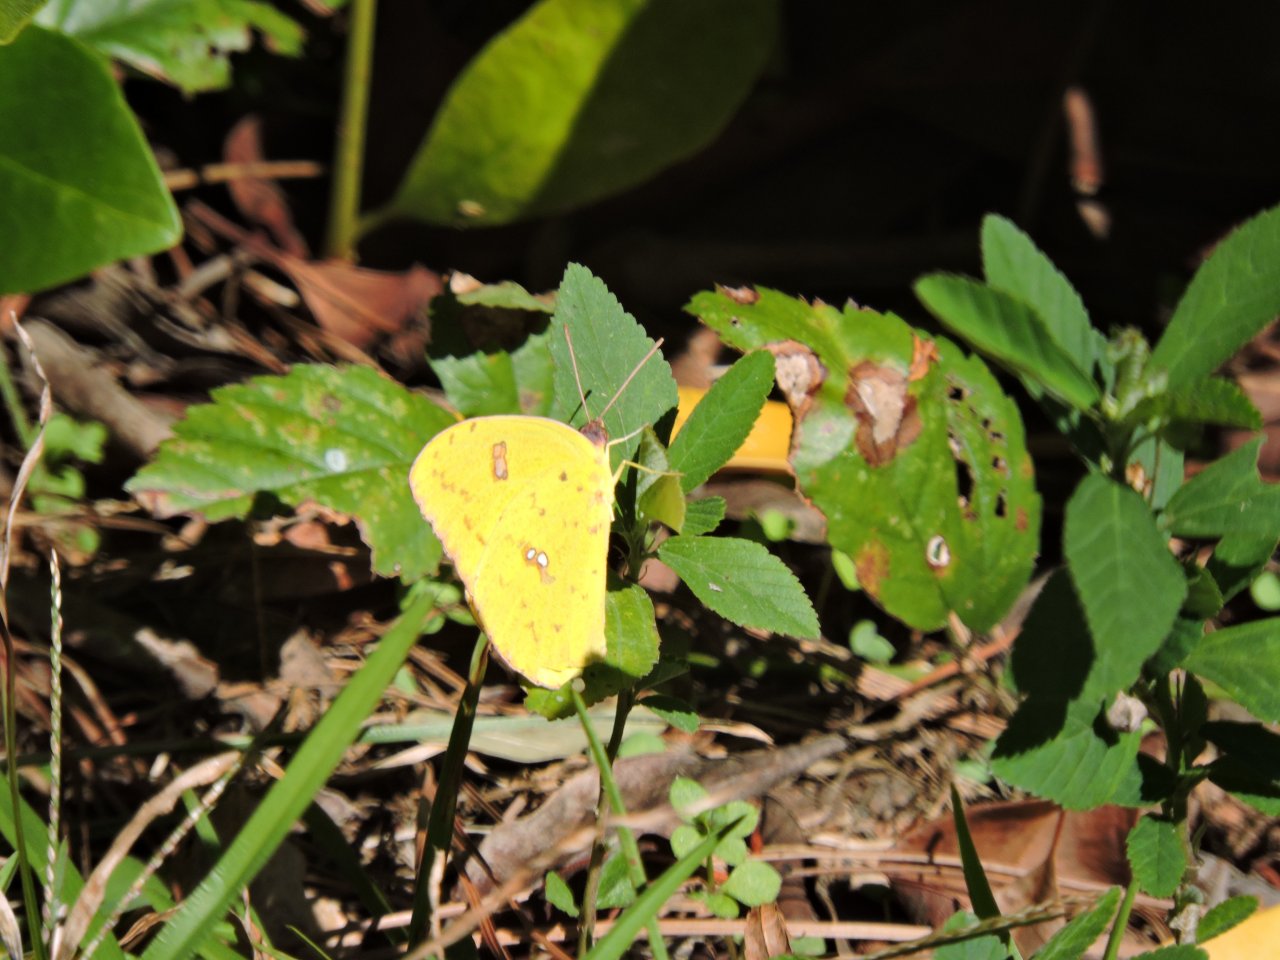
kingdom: Animalia
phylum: Arthropoda
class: Insecta
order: Lepidoptera
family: Pieridae
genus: Phoebis
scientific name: Phoebis sennae
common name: Cloudless Sulphur
